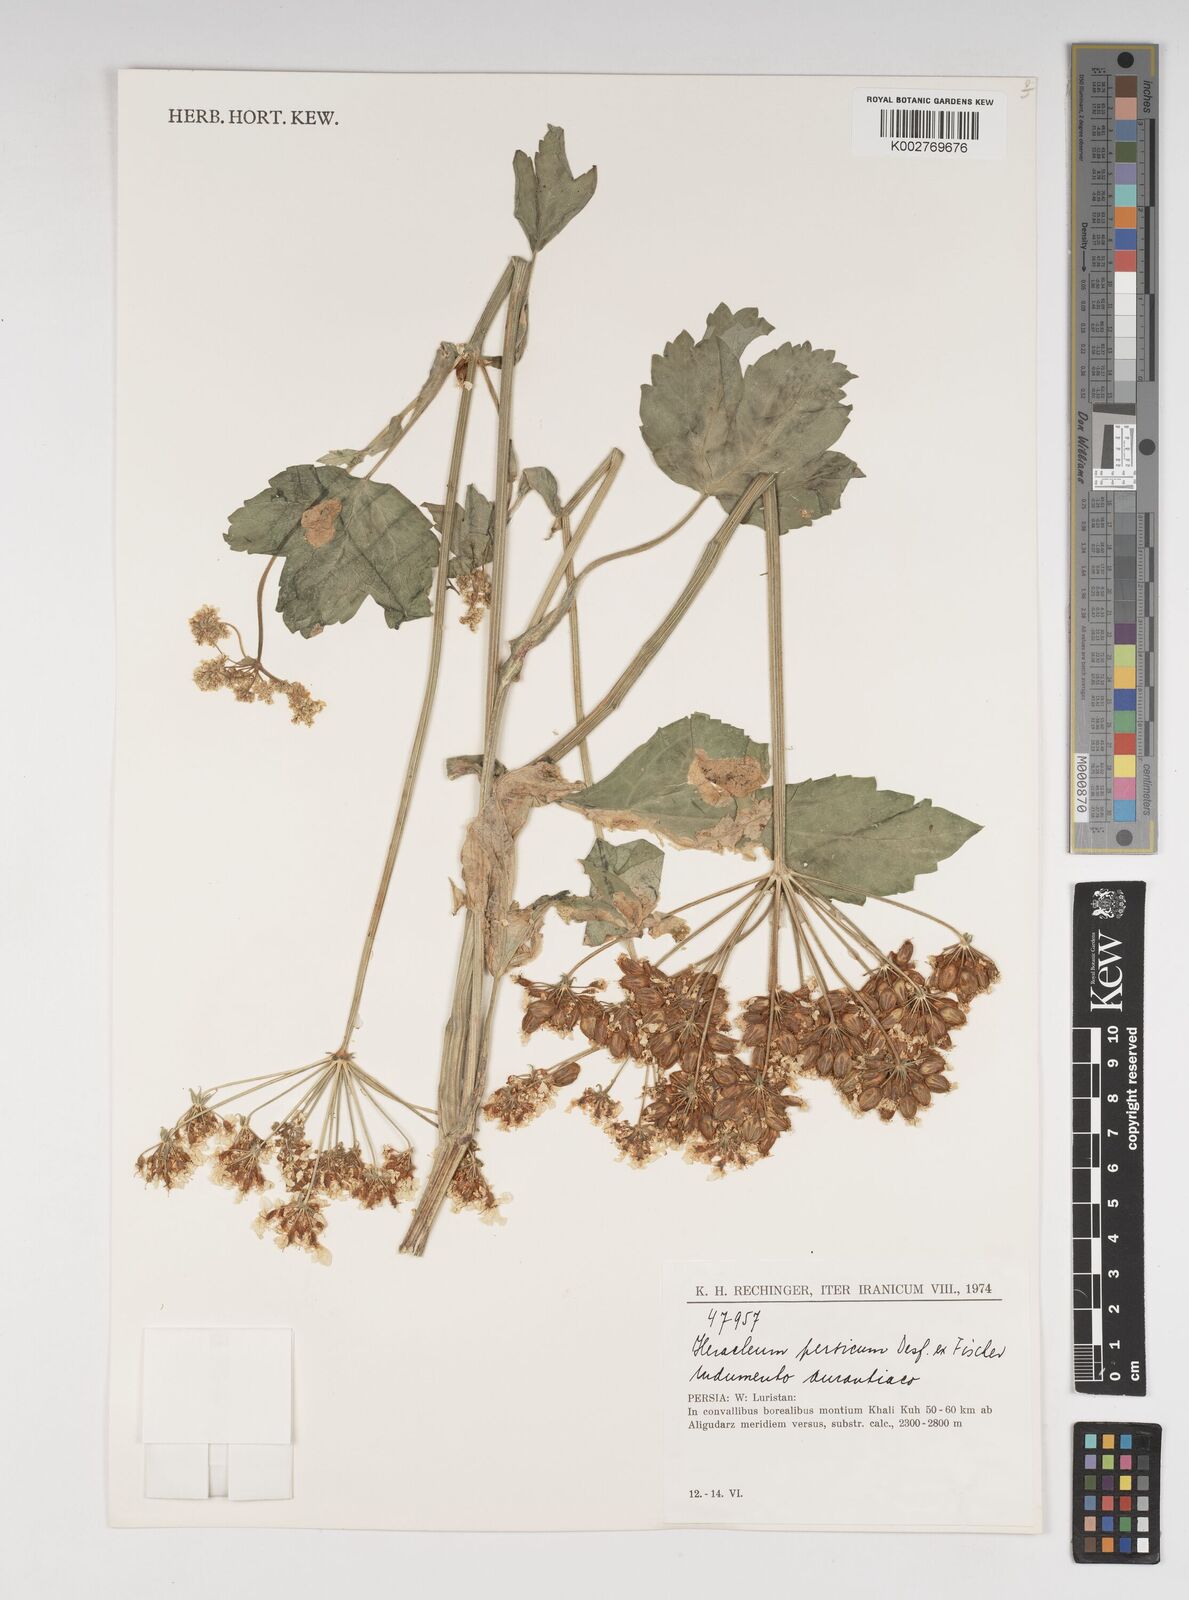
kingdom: Plantae
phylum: Tracheophyta
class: Magnoliopsida
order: Apiales
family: Apiaceae
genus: Heracleum
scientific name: Heracleum persicum
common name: Persian hogweed
